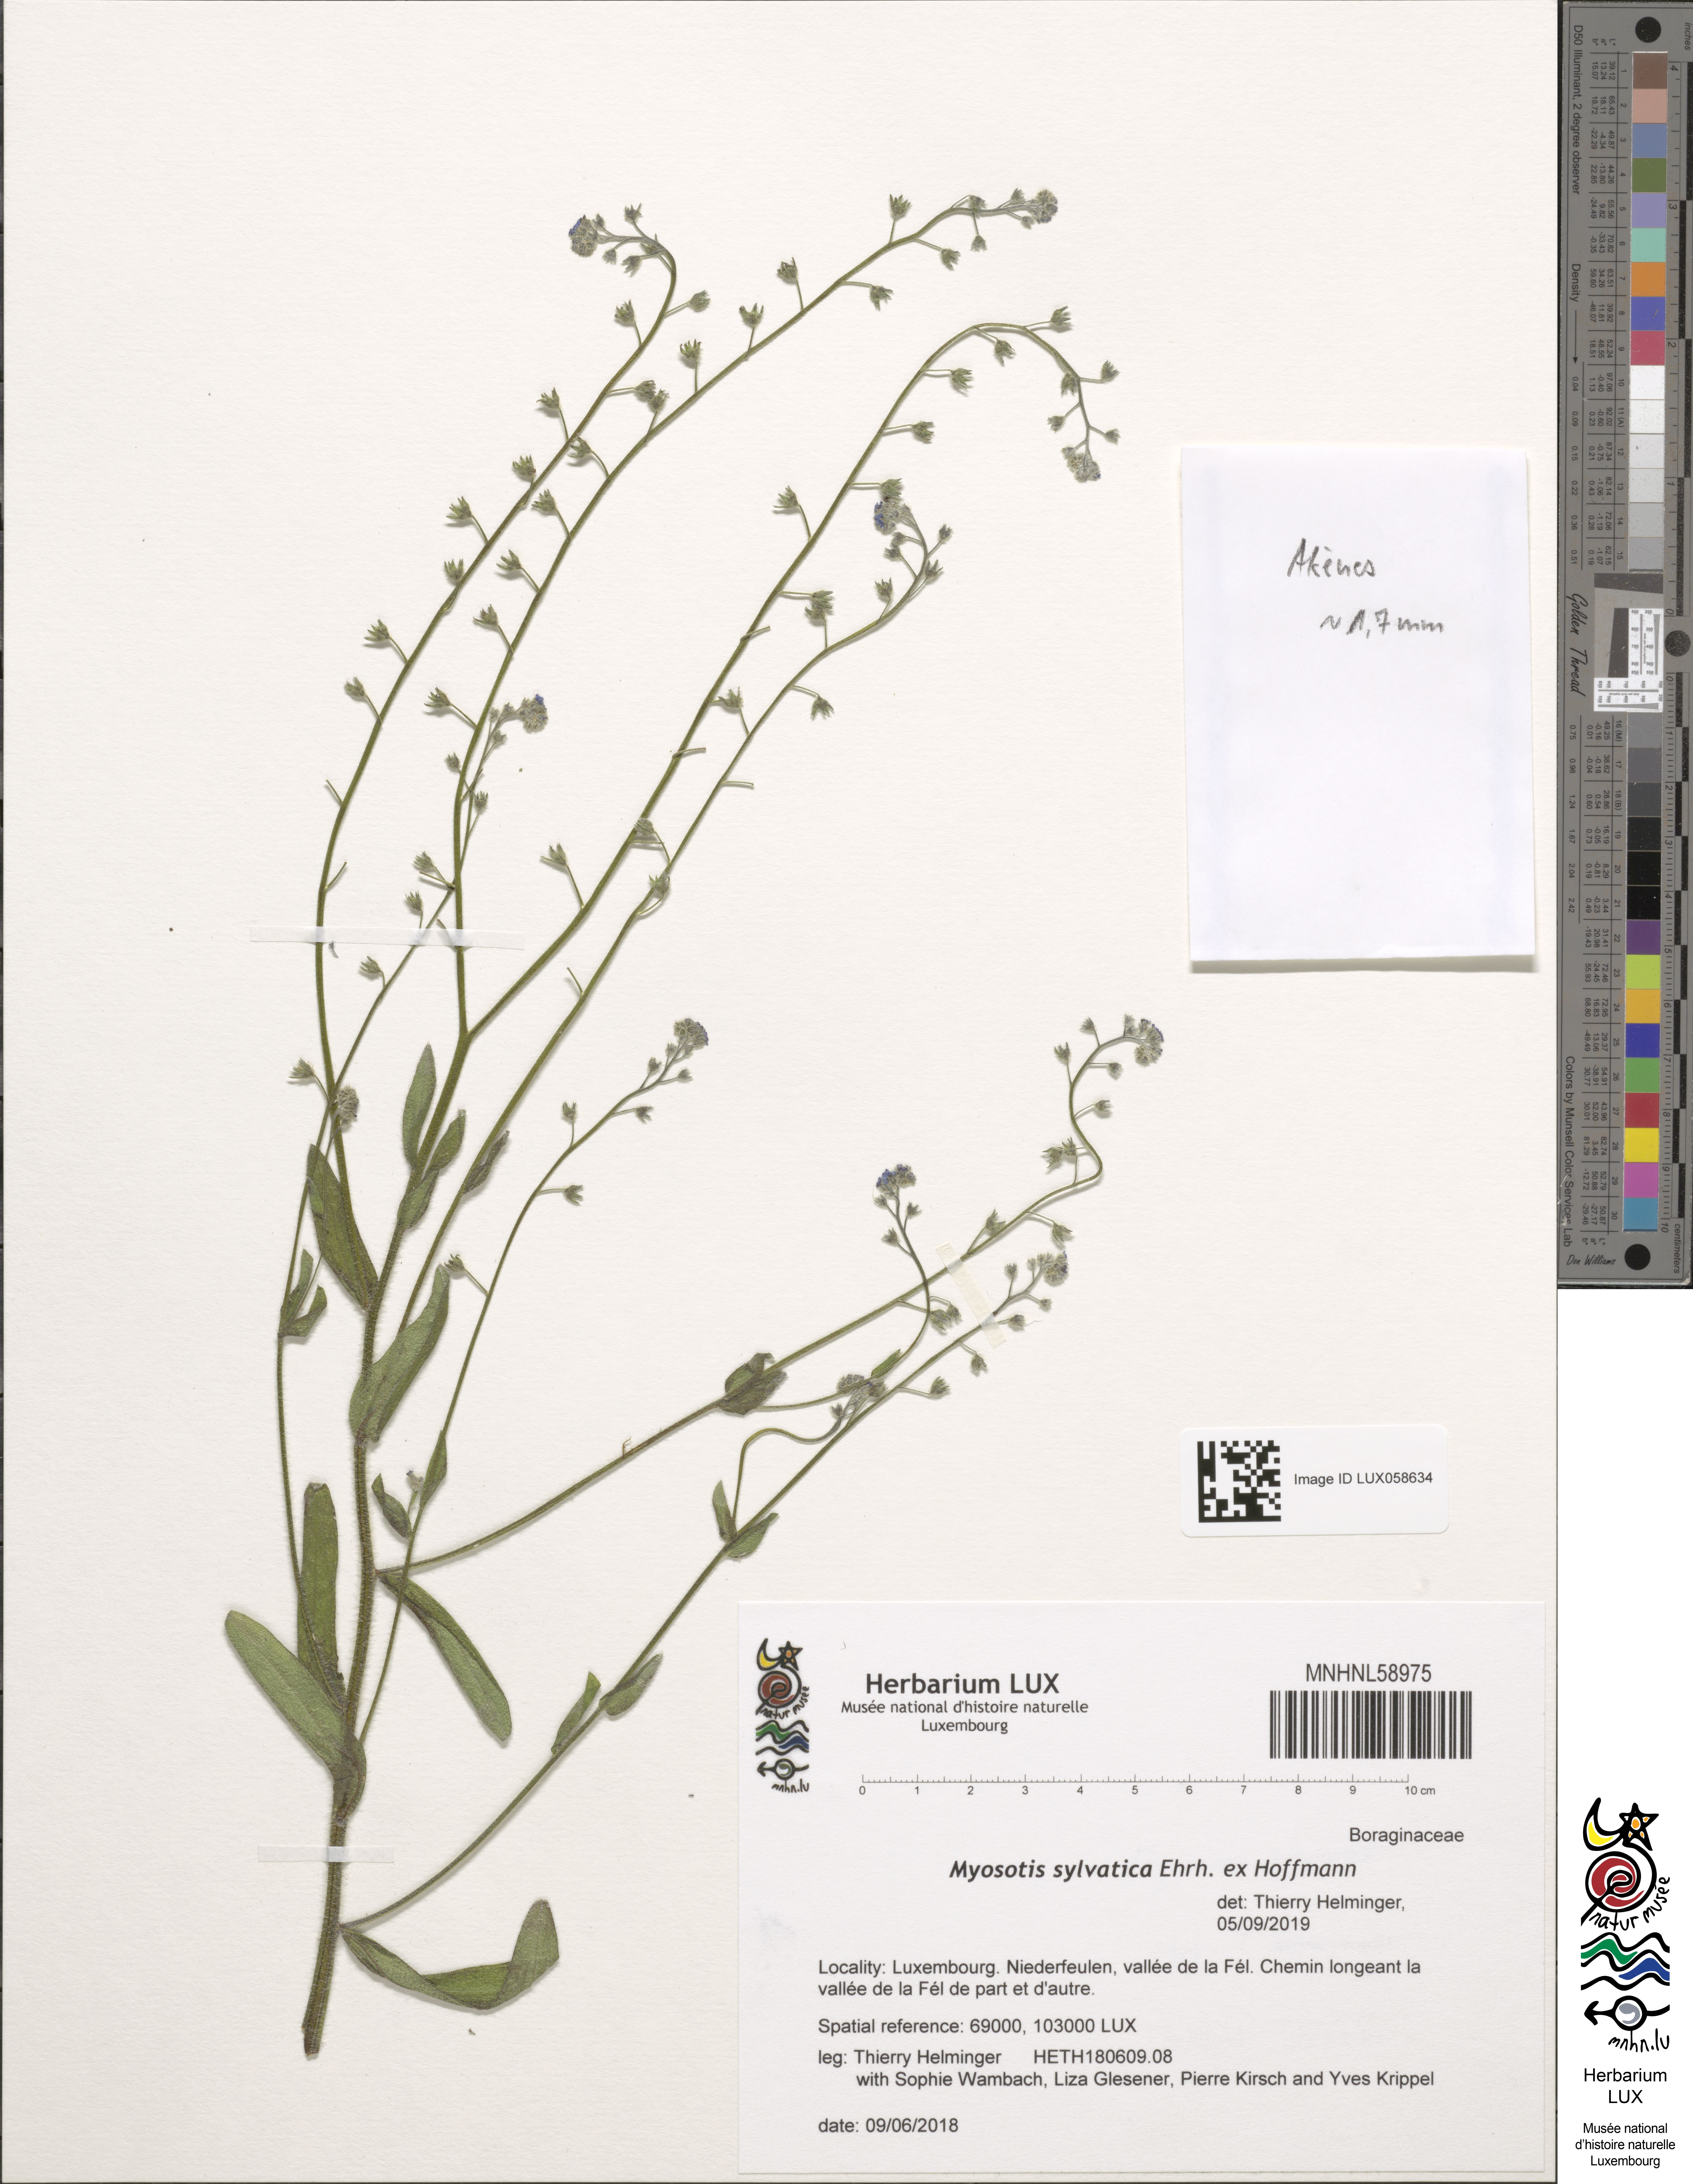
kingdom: Plantae
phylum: Tracheophyta
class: Magnoliopsida
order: Boraginales
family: Boraginaceae
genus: Myosotis
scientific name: Myosotis sylvatica
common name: Wood forget-me-not
